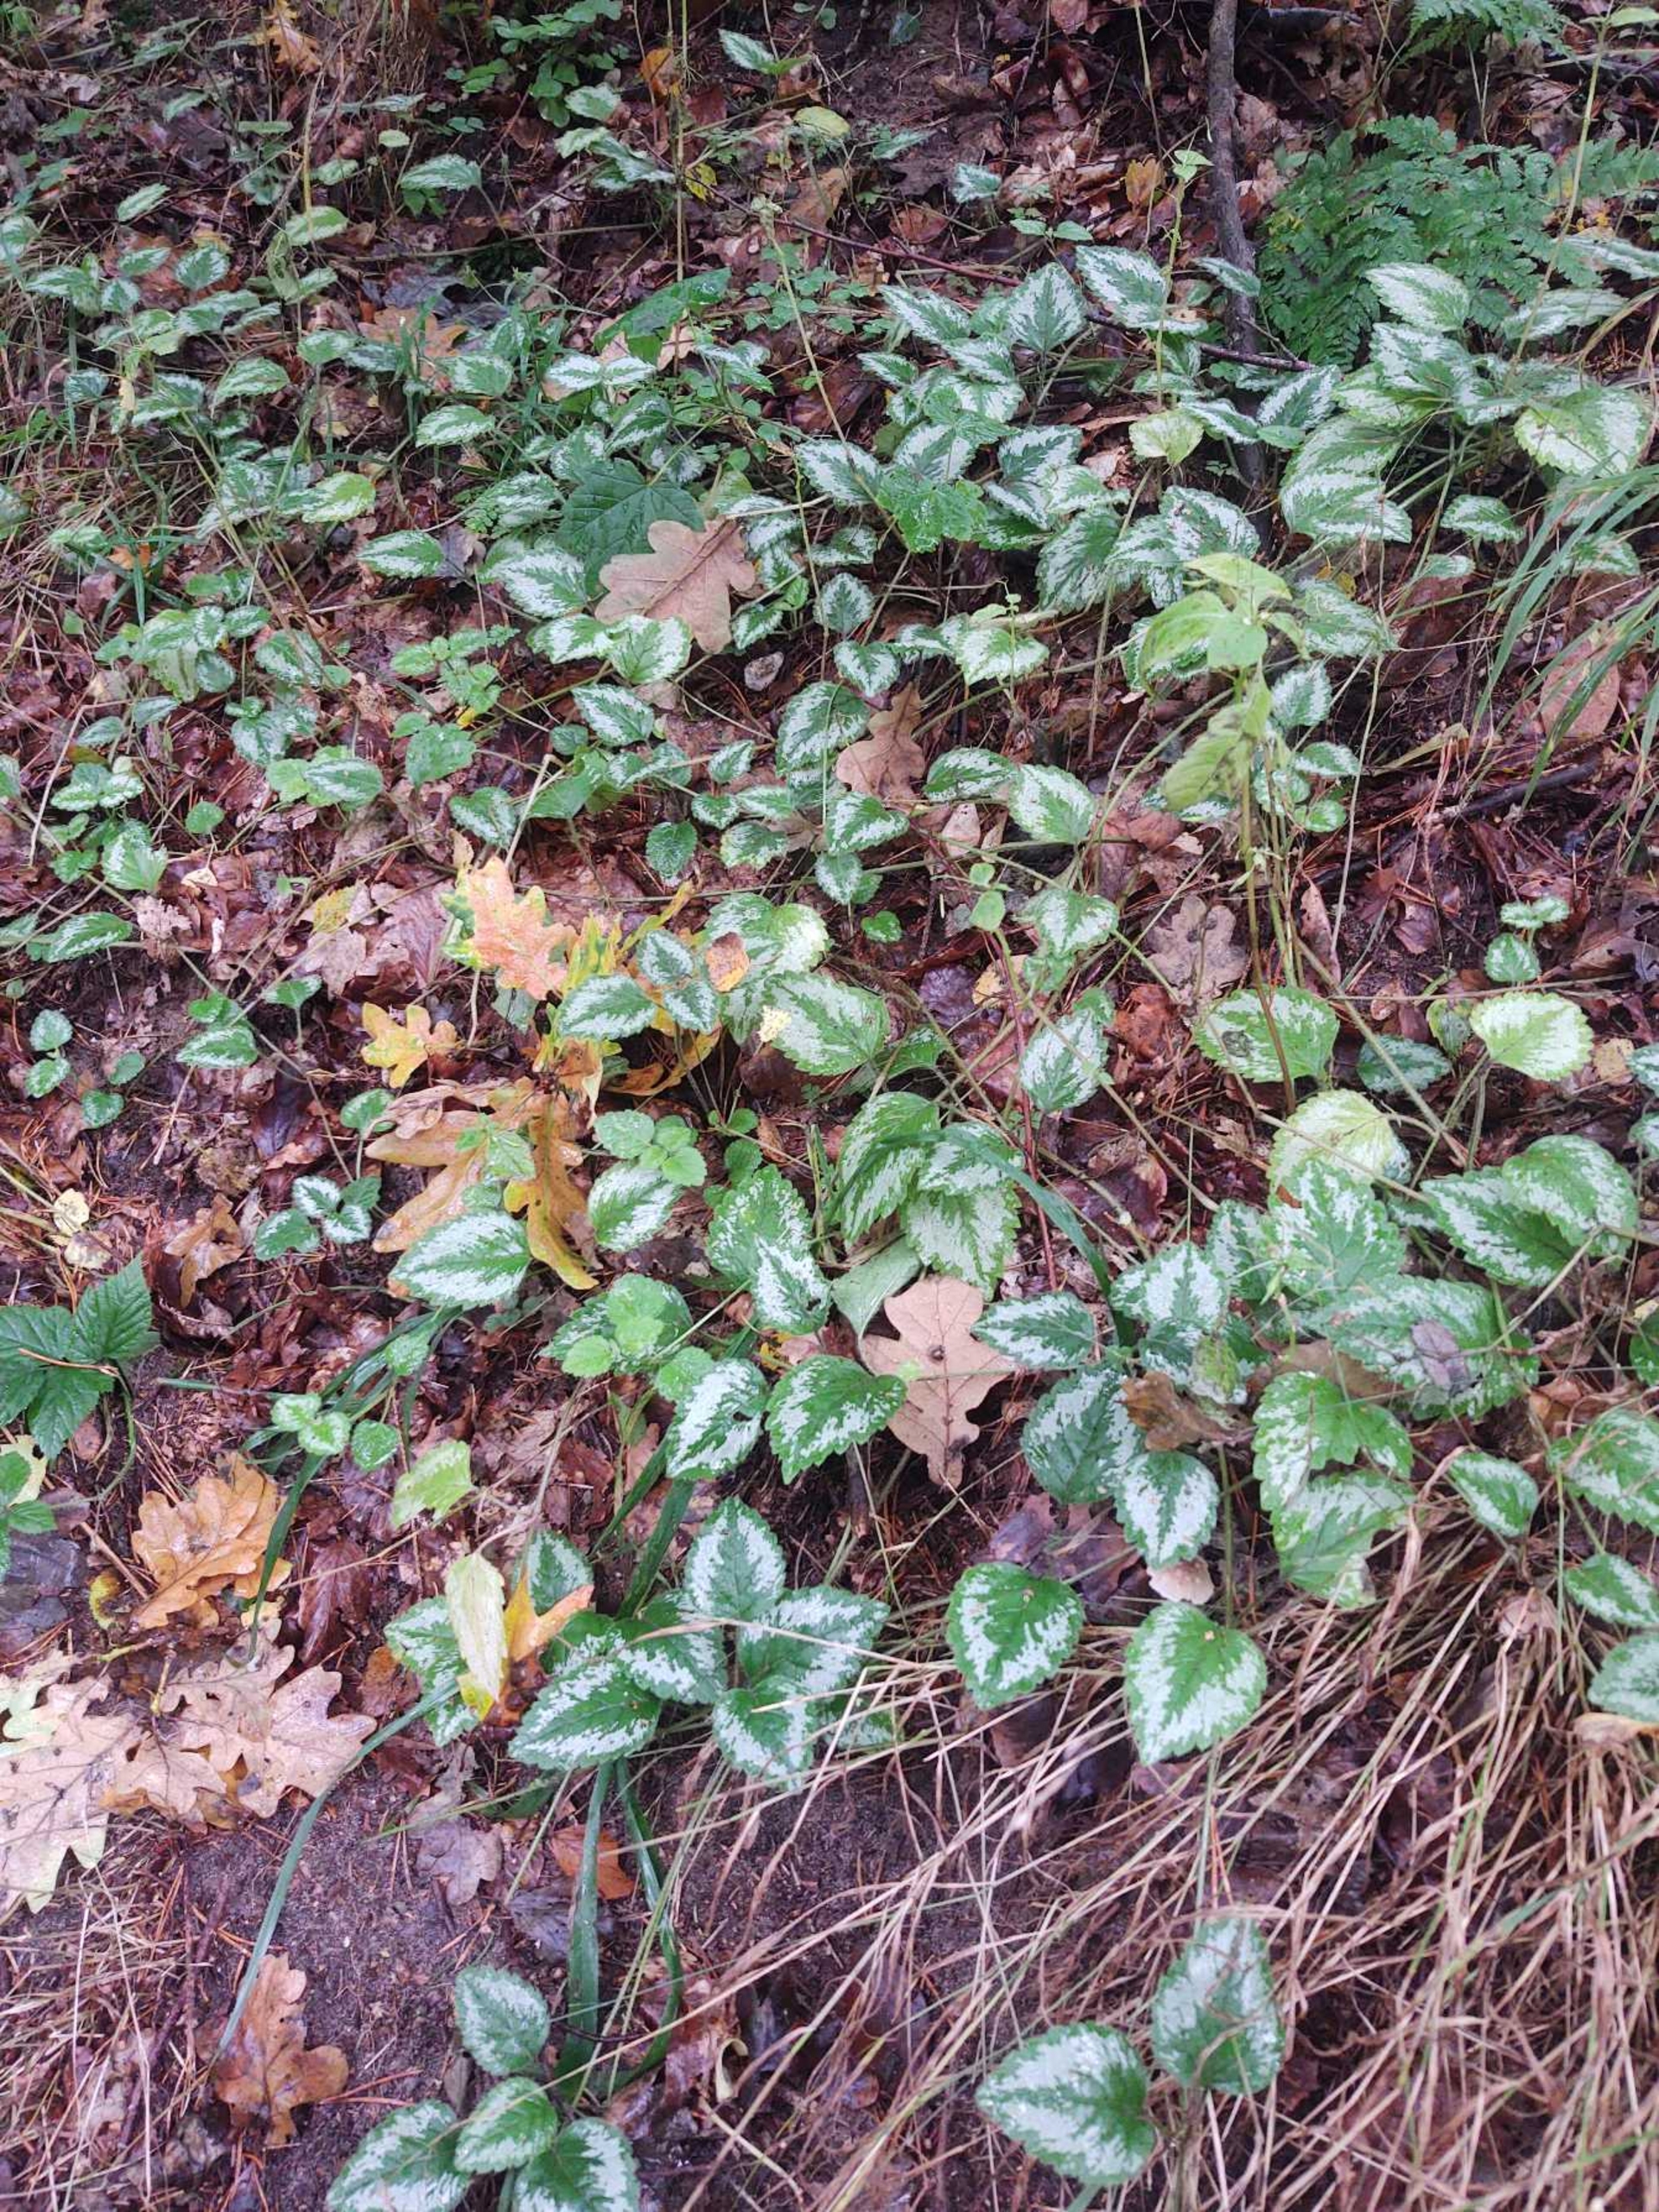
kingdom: Plantae
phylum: Tracheophyta
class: Magnoliopsida
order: Lamiales
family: Lamiaceae
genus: Lamium
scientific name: Lamium galeobdolon
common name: Have-guldnælde
